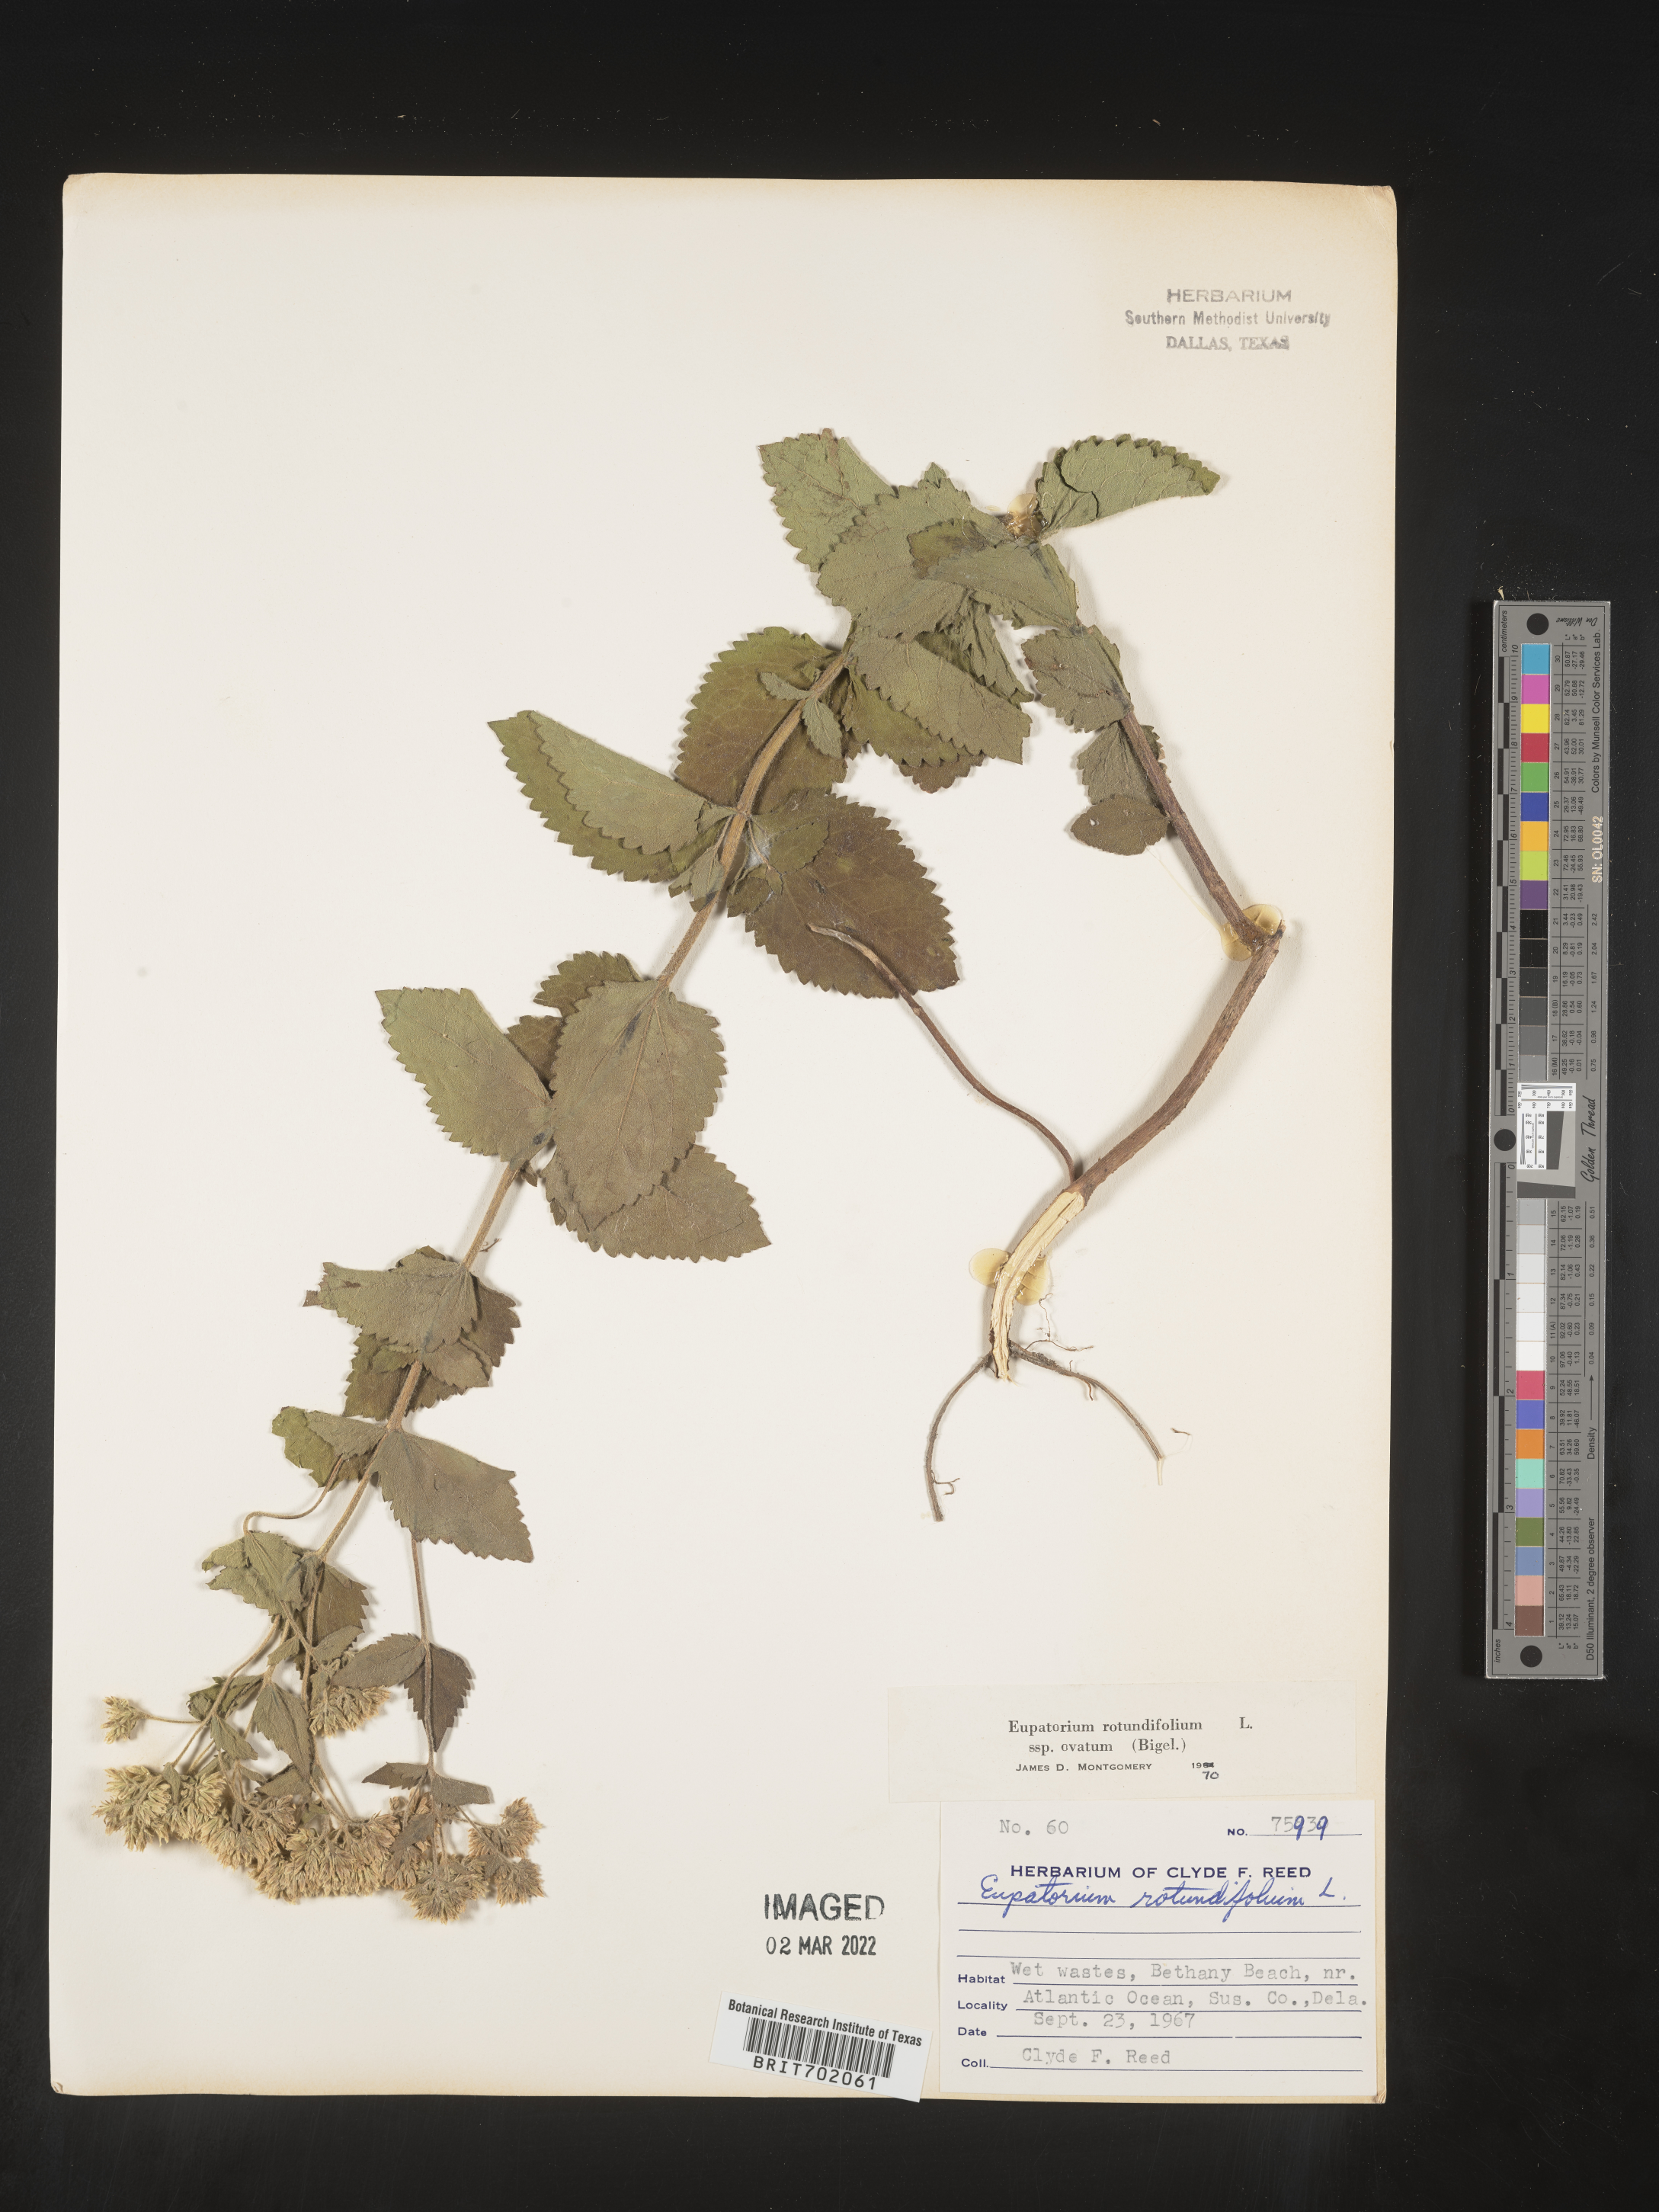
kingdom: Plantae
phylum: Tracheophyta
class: Magnoliopsida
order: Asterales
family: Asteraceae
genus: Eupatorium
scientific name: Eupatorium rotundifolium
